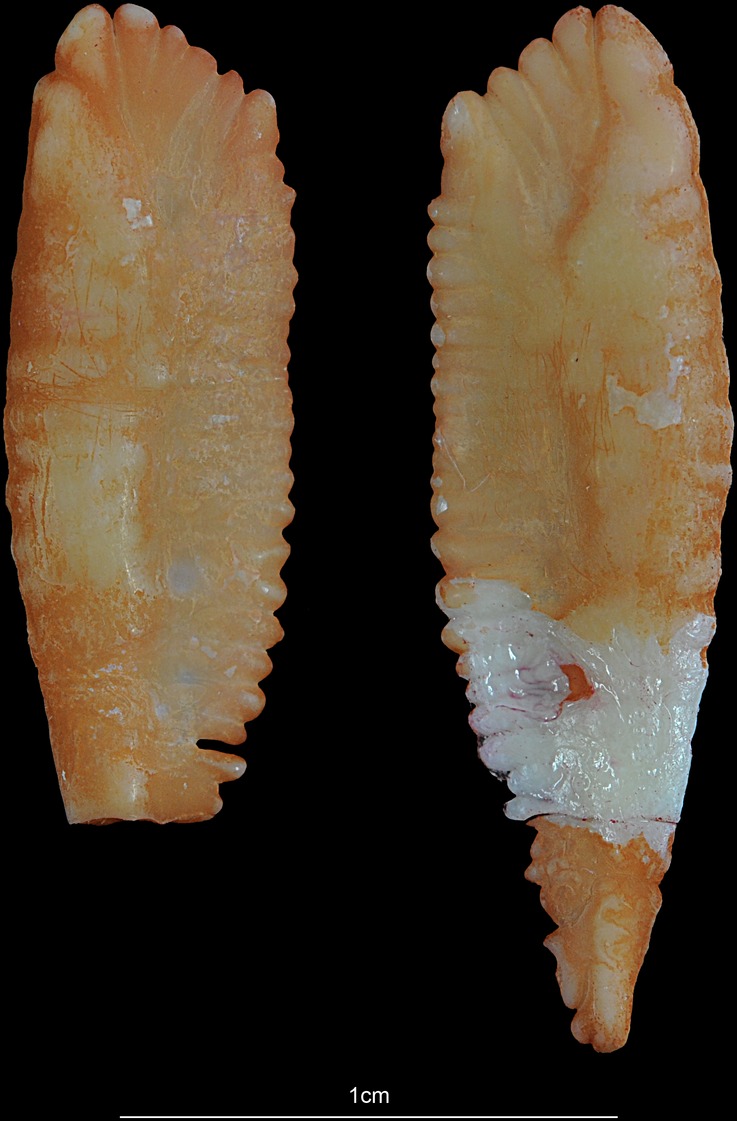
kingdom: Animalia
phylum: Chordata
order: Gadiformes
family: Gadidae
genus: Merlangius
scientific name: Merlangius merlangus
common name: Whiting
